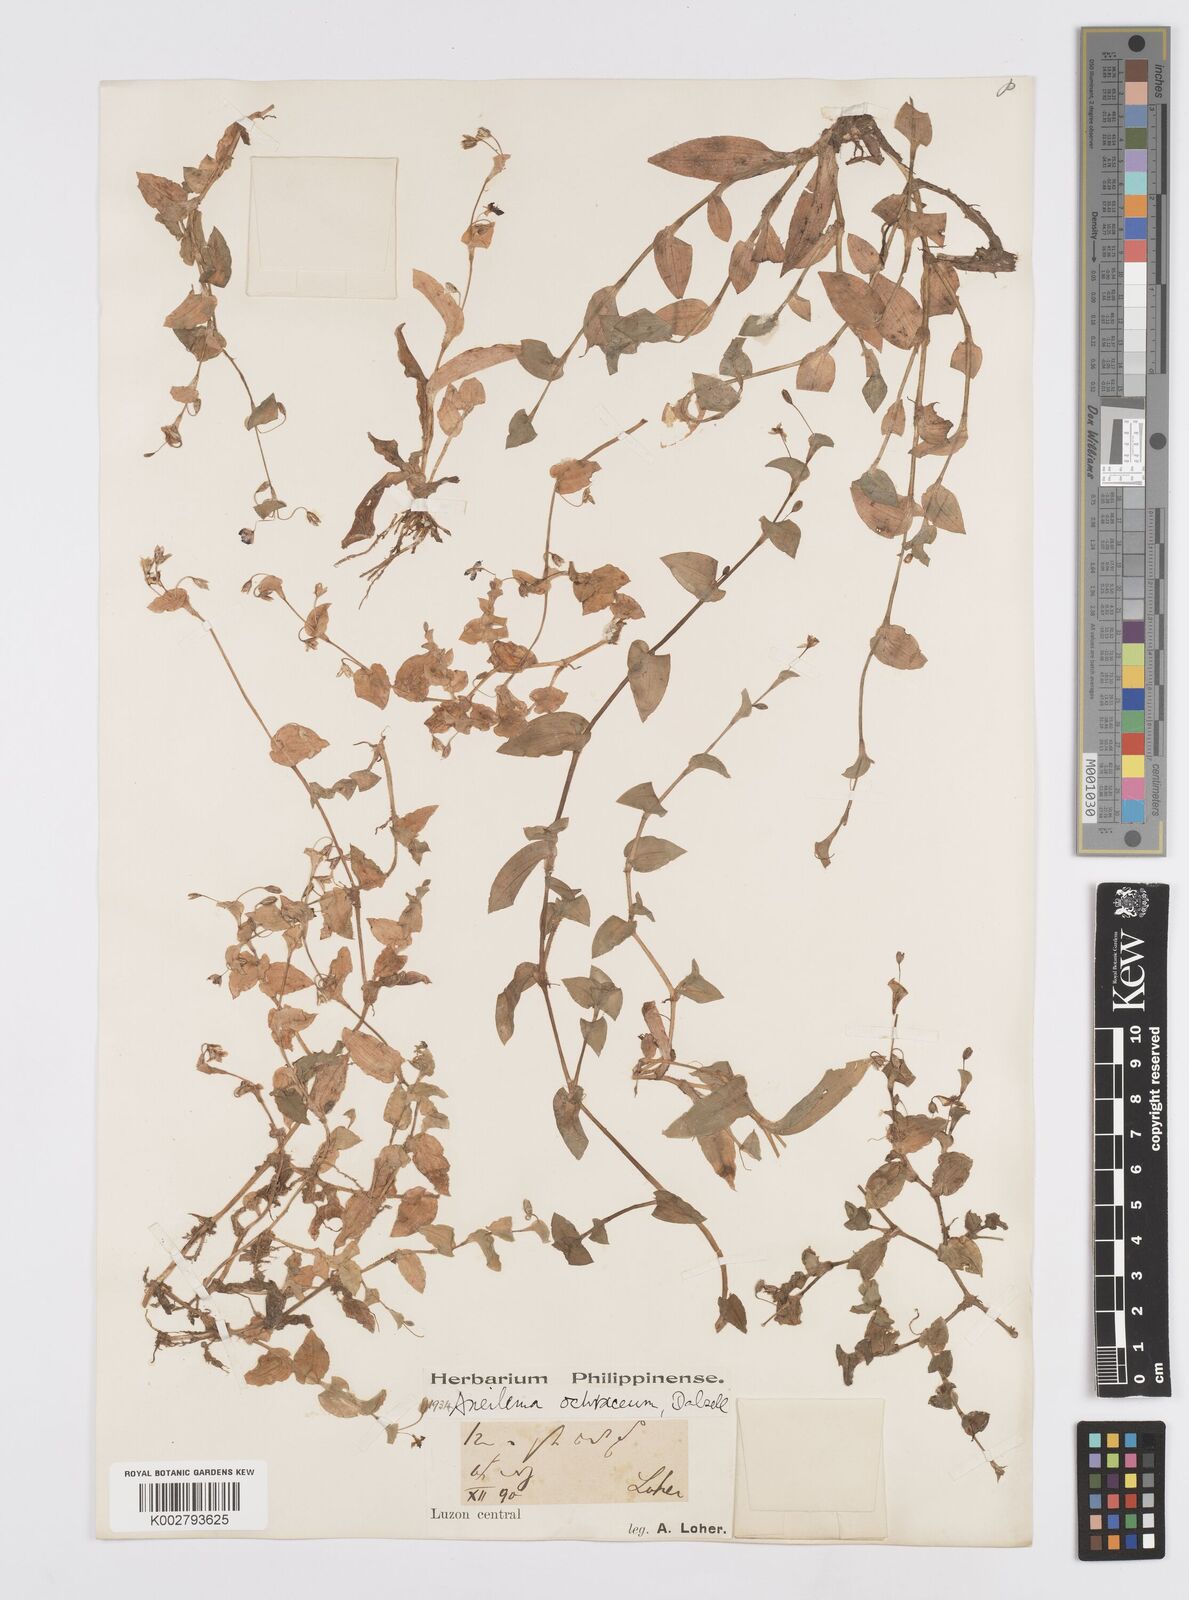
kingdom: Plantae
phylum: Tracheophyta
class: Liliopsida
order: Commelinales
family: Commelinaceae
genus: Murdannia
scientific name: Murdannia crocea
